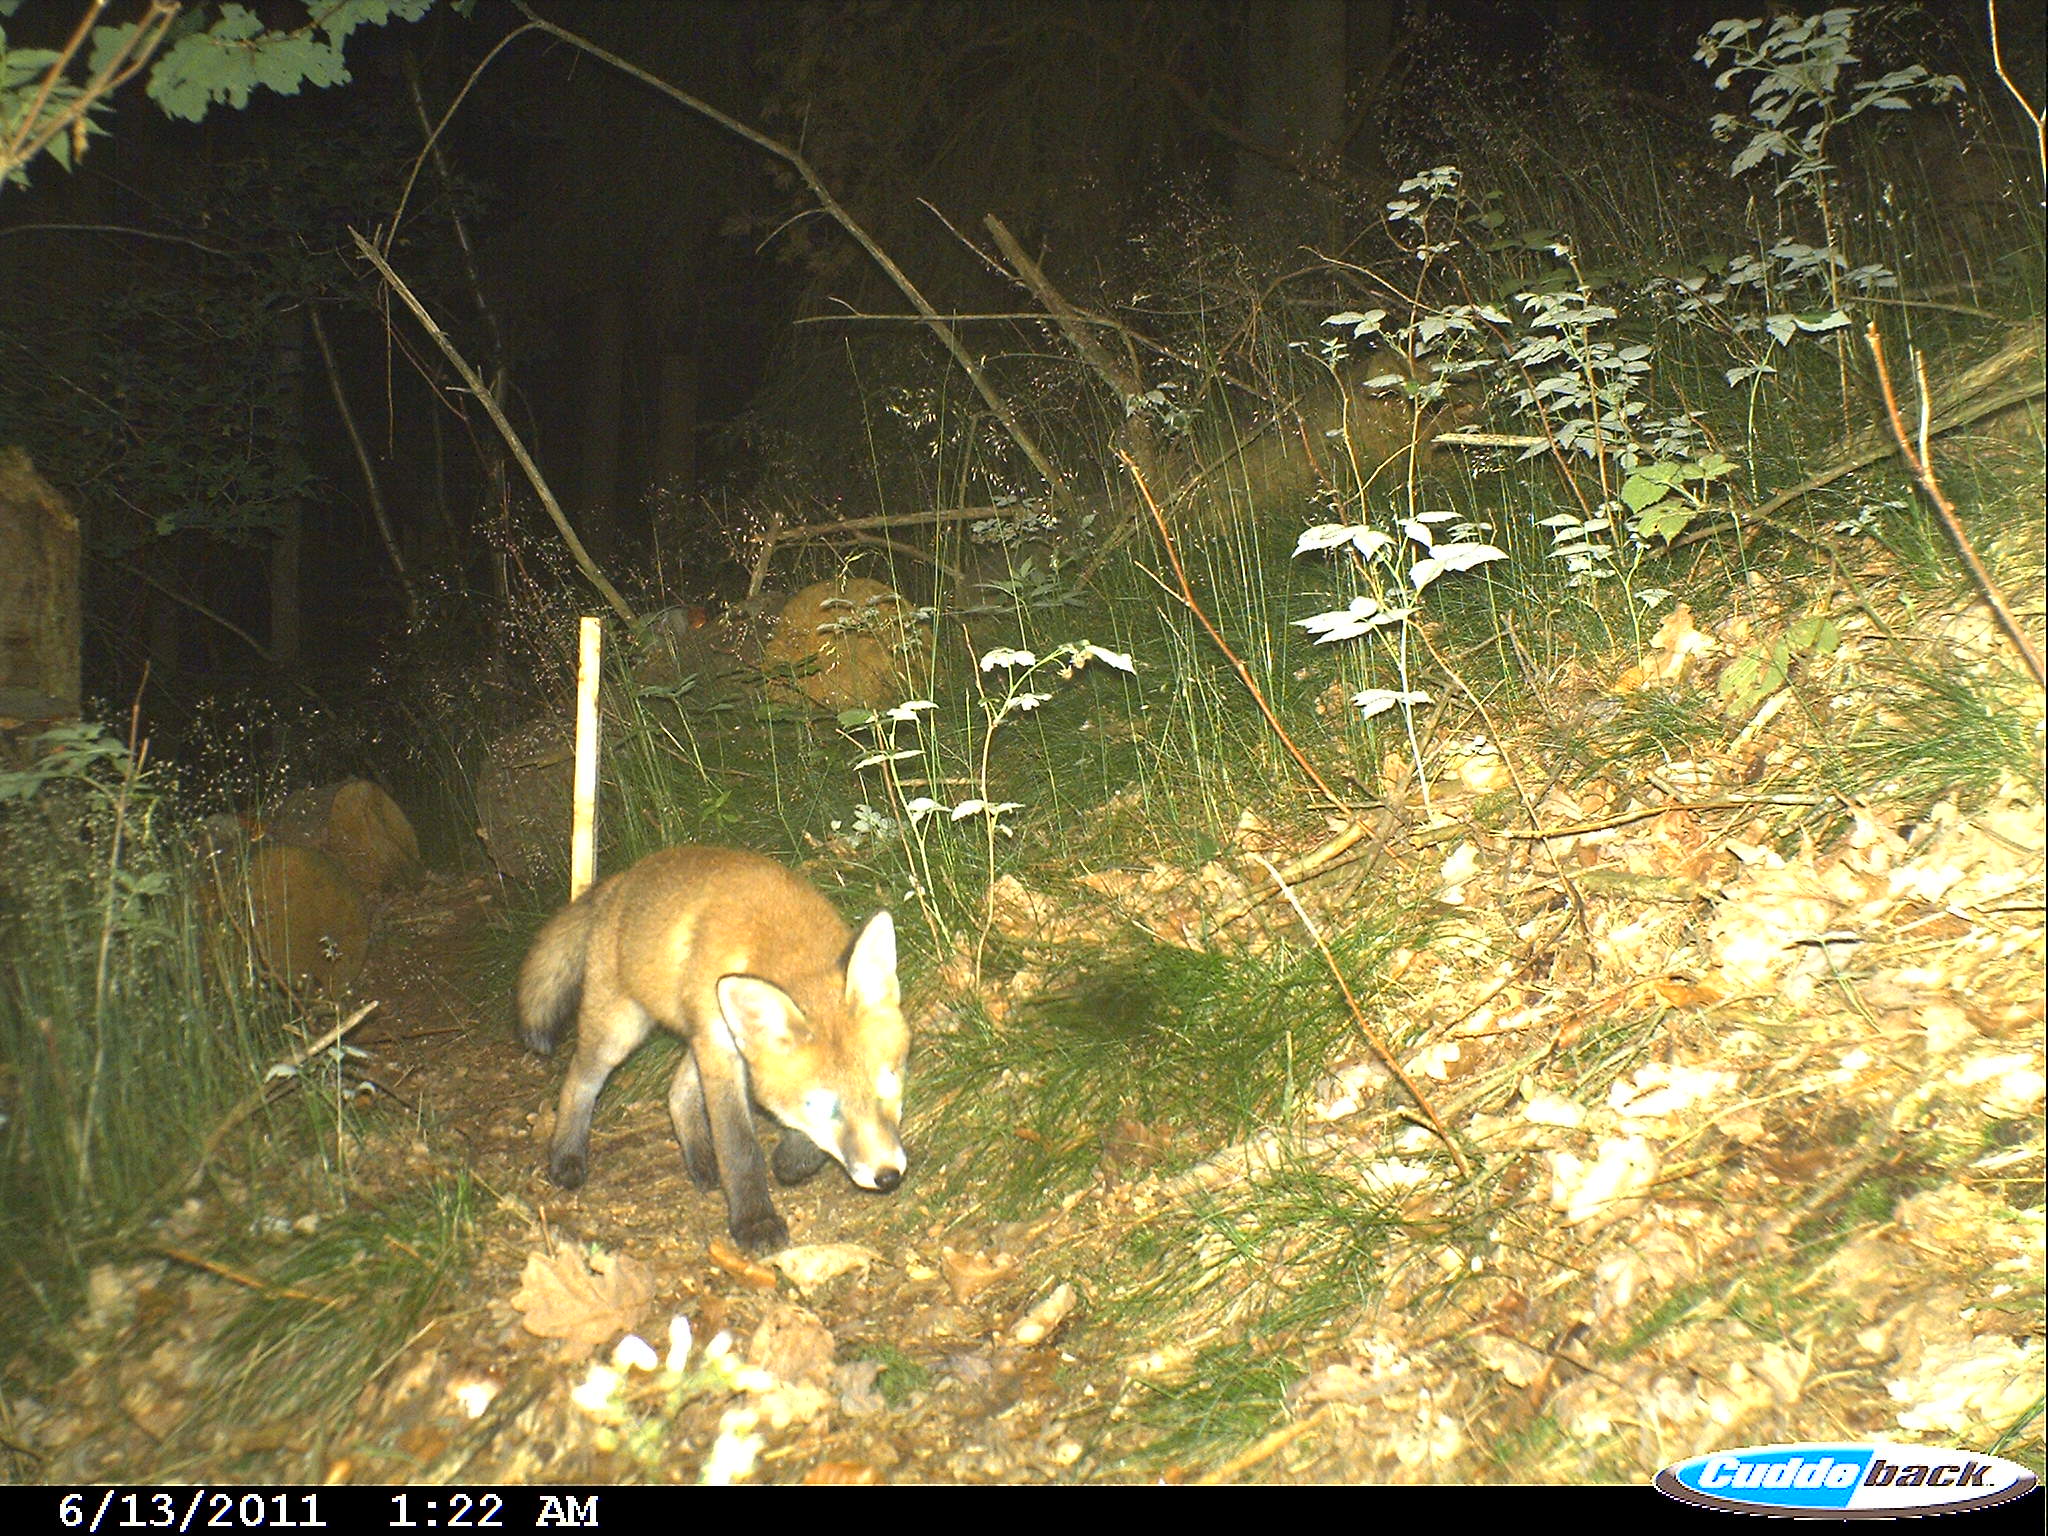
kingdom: Animalia
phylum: Chordata
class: Mammalia
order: Carnivora
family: Canidae
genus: Vulpes
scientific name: Vulpes vulpes
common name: Red fox
